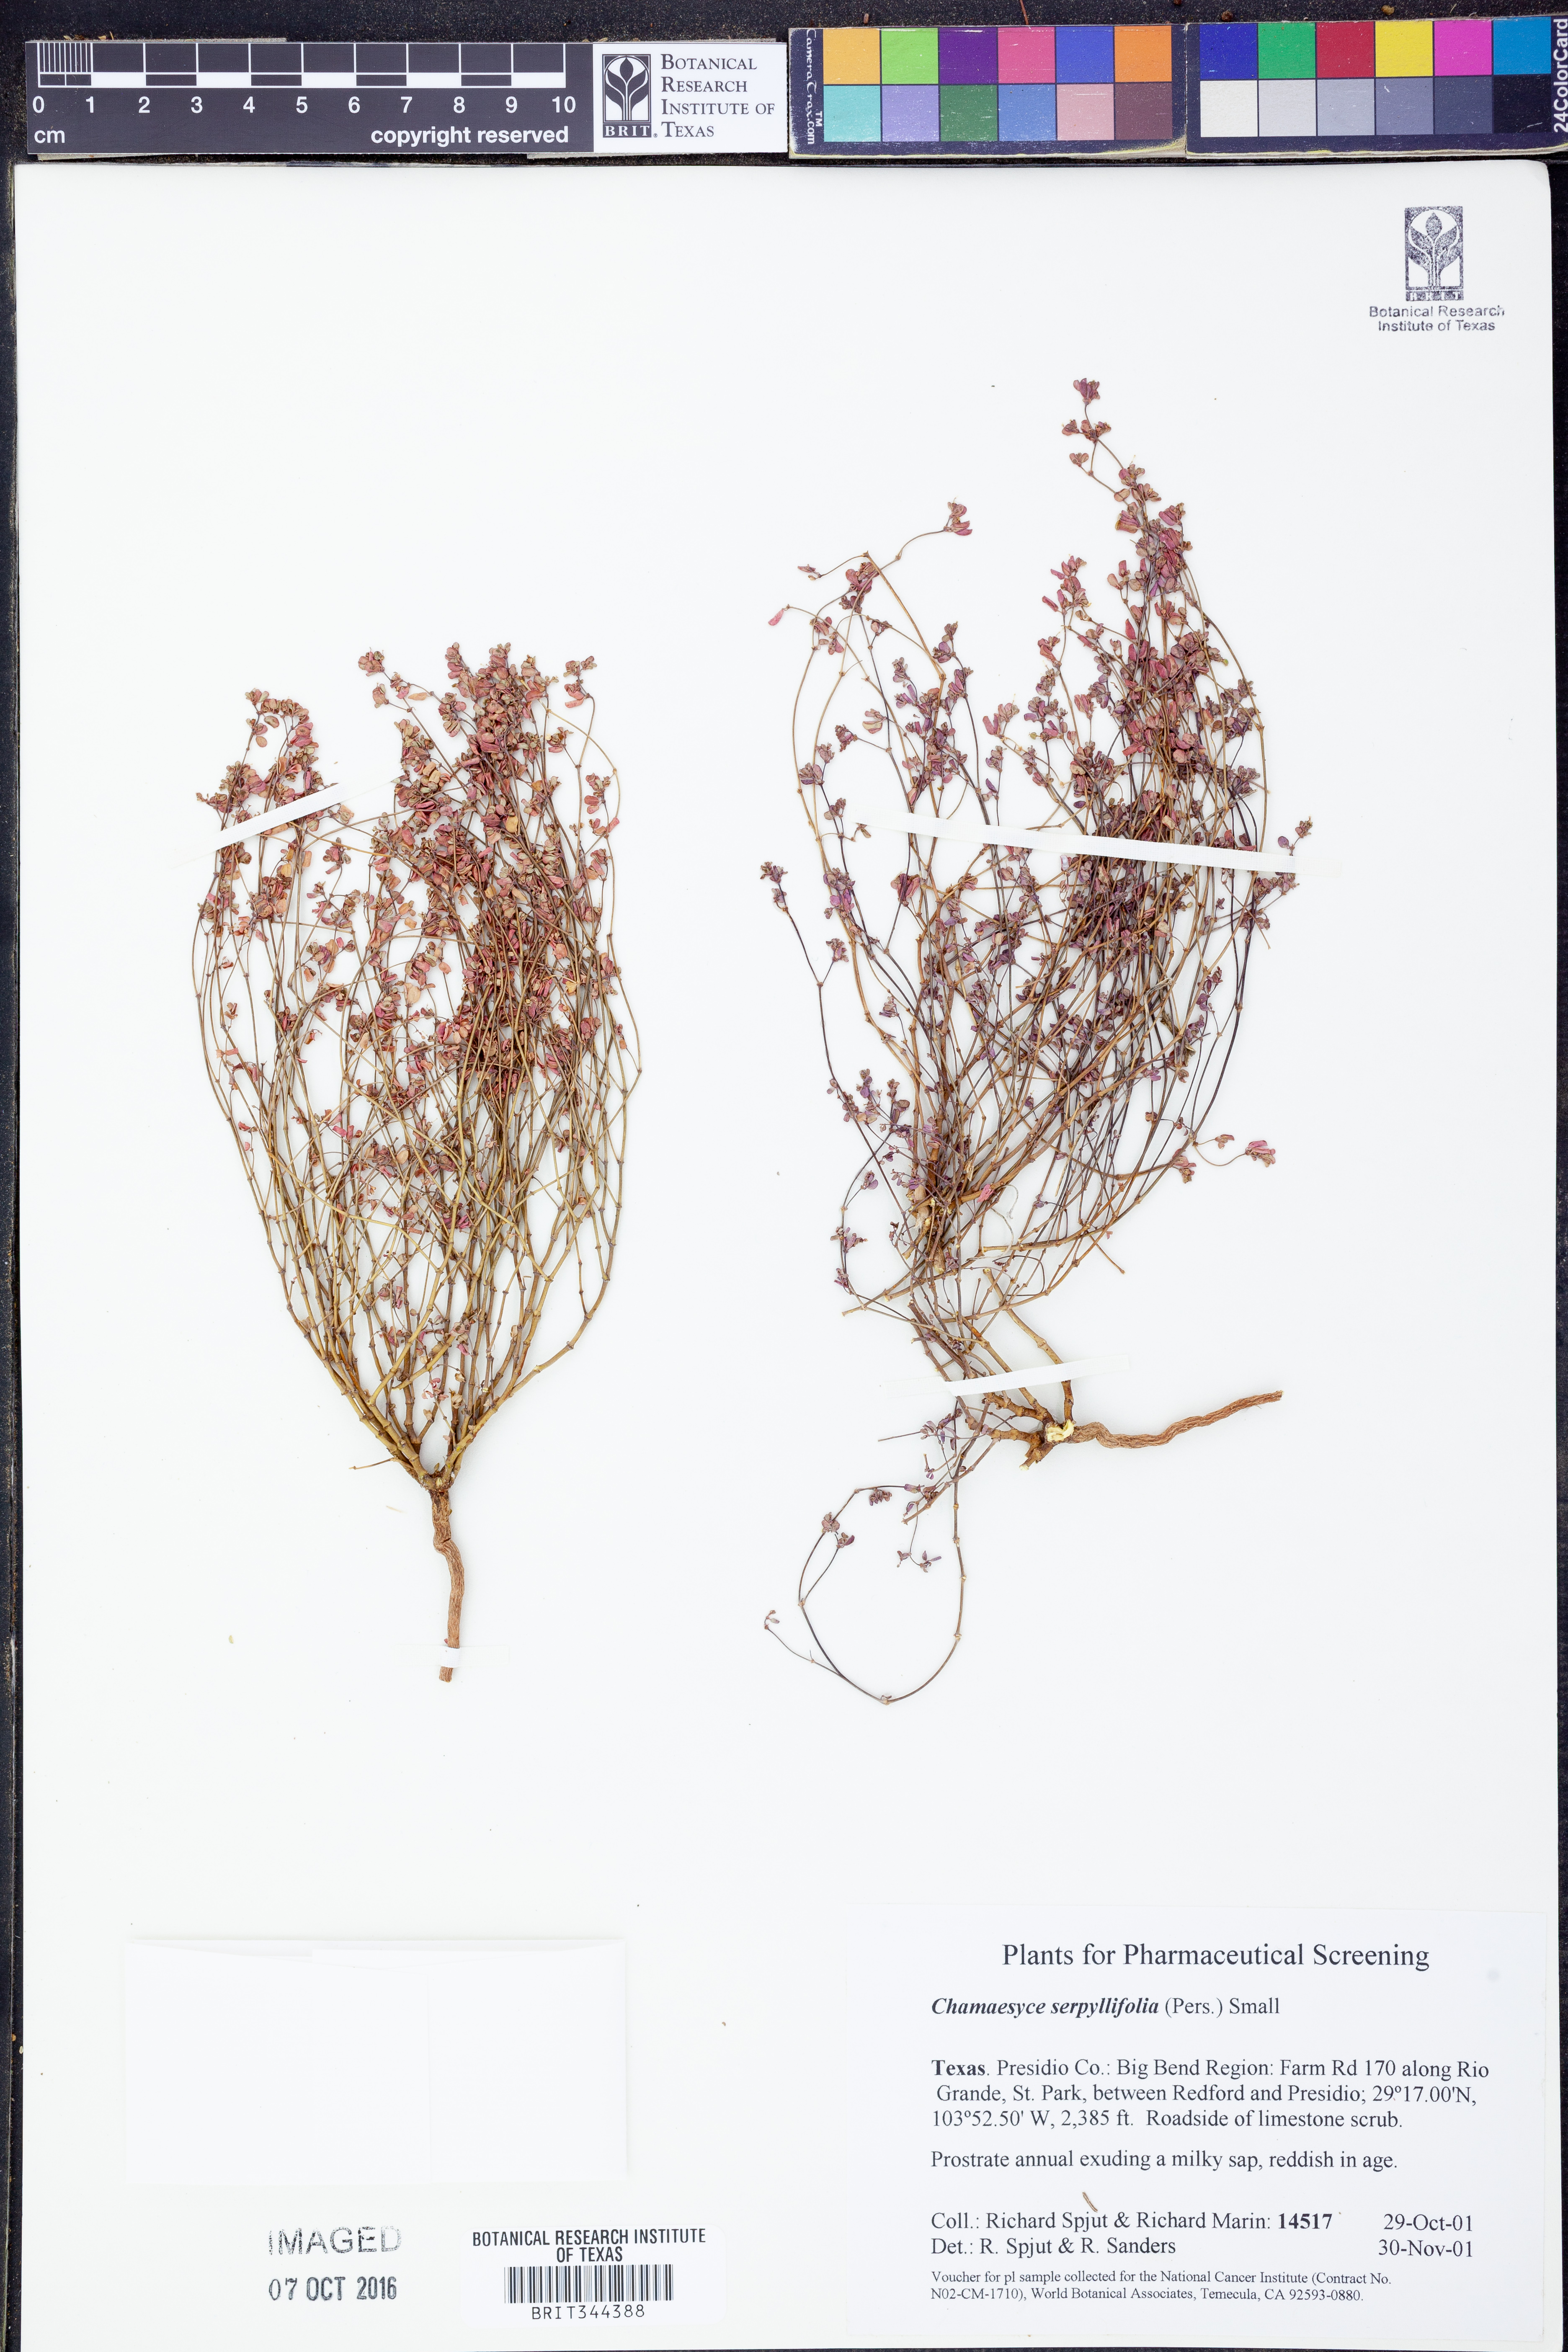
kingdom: Plantae
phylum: Tracheophyta
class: Magnoliopsida
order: Malpighiales
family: Euphorbiaceae
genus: Euphorbia
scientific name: Euphorbia serpillifolia
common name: Thyme-leaf spurge
